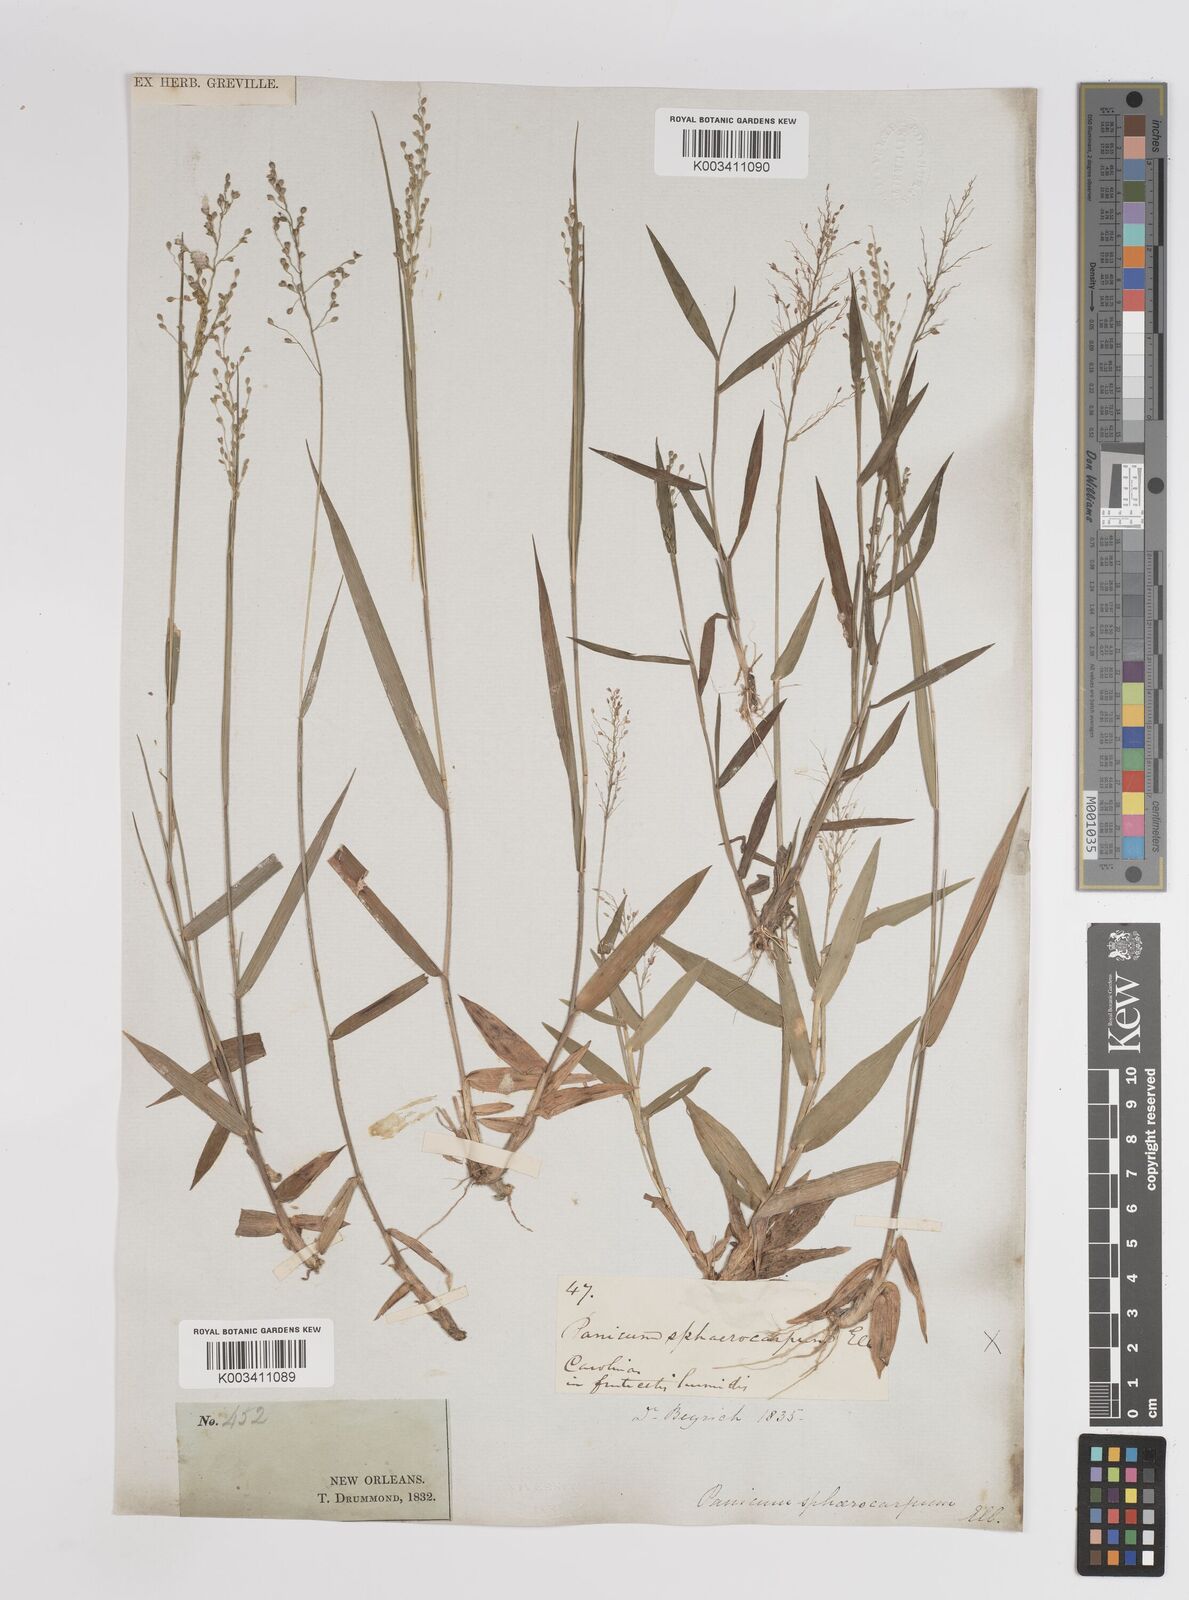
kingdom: Plantae
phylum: Tracheophyta
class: Liliopsida
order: Poales
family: Poaceae
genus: Dichanthelium
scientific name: Dichanthelium sphaerocarpon
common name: Round-fruited panicgrass
